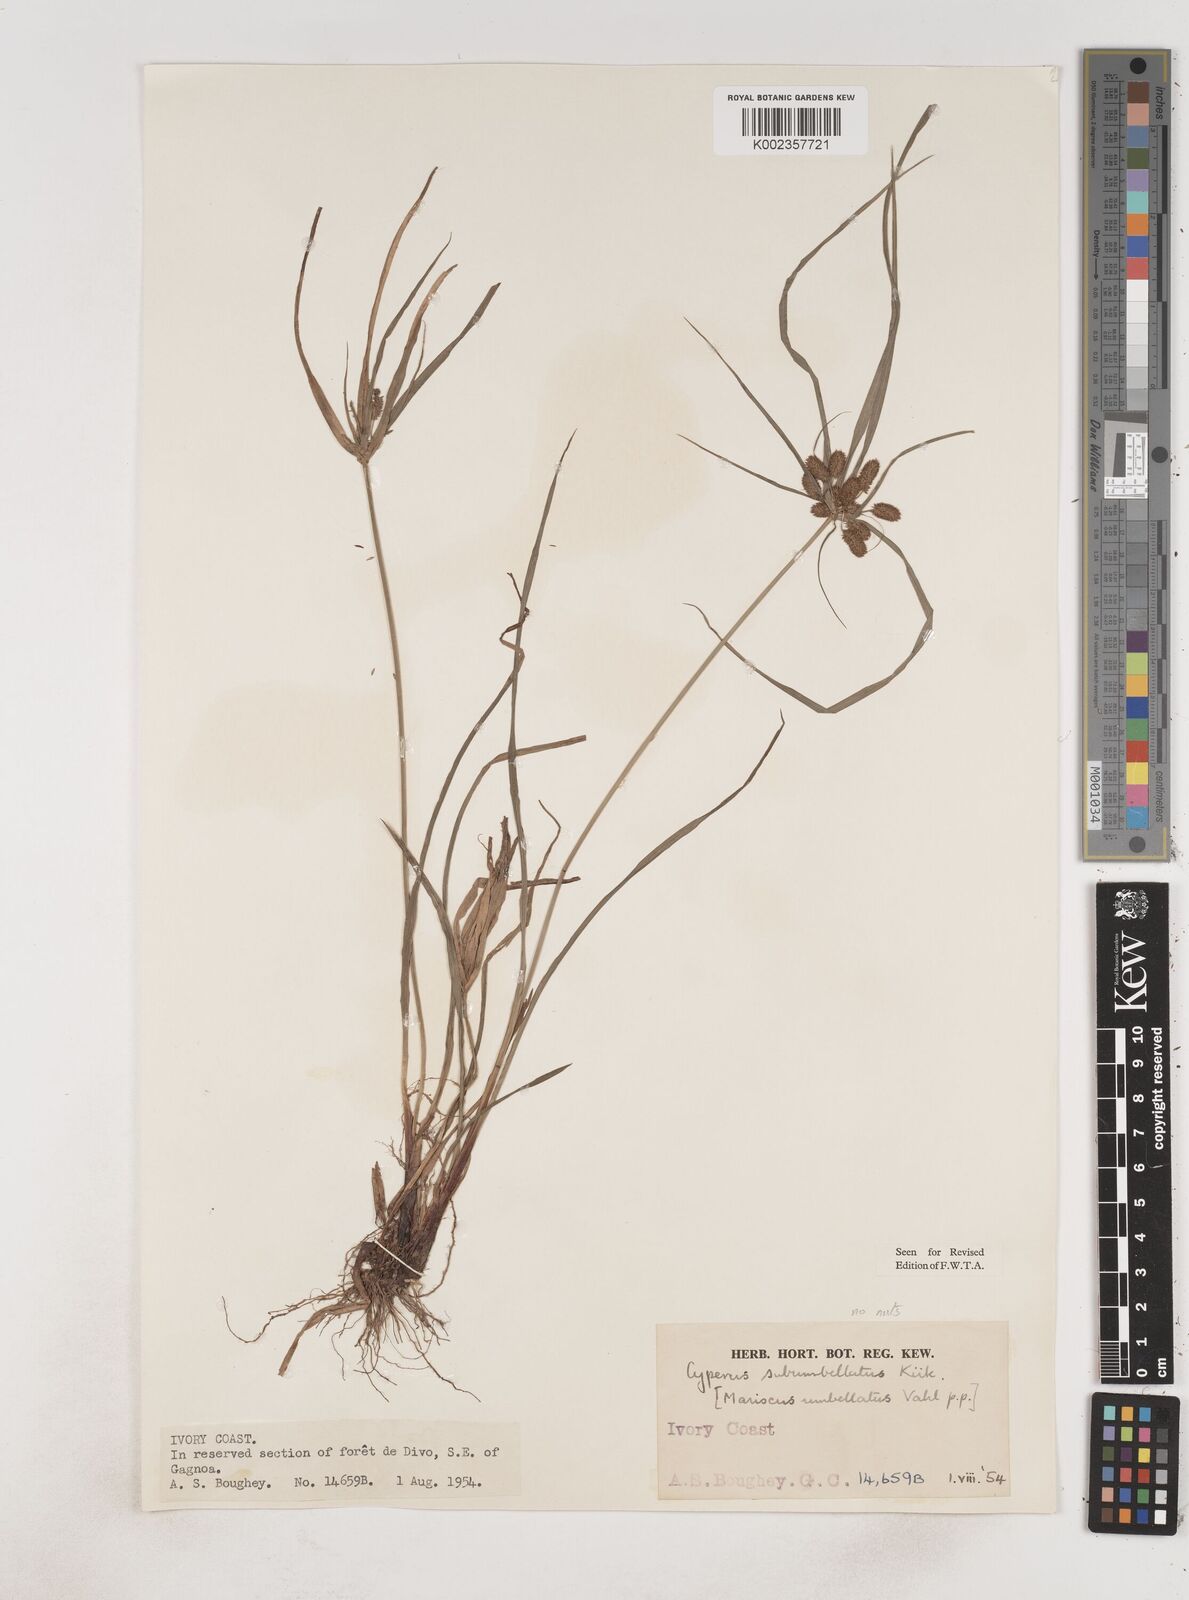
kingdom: Plantae
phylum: Tracheophyta
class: Liliopsida
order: Poales
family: Cyperaceae
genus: Cyperus
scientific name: Cyperus sublimis
